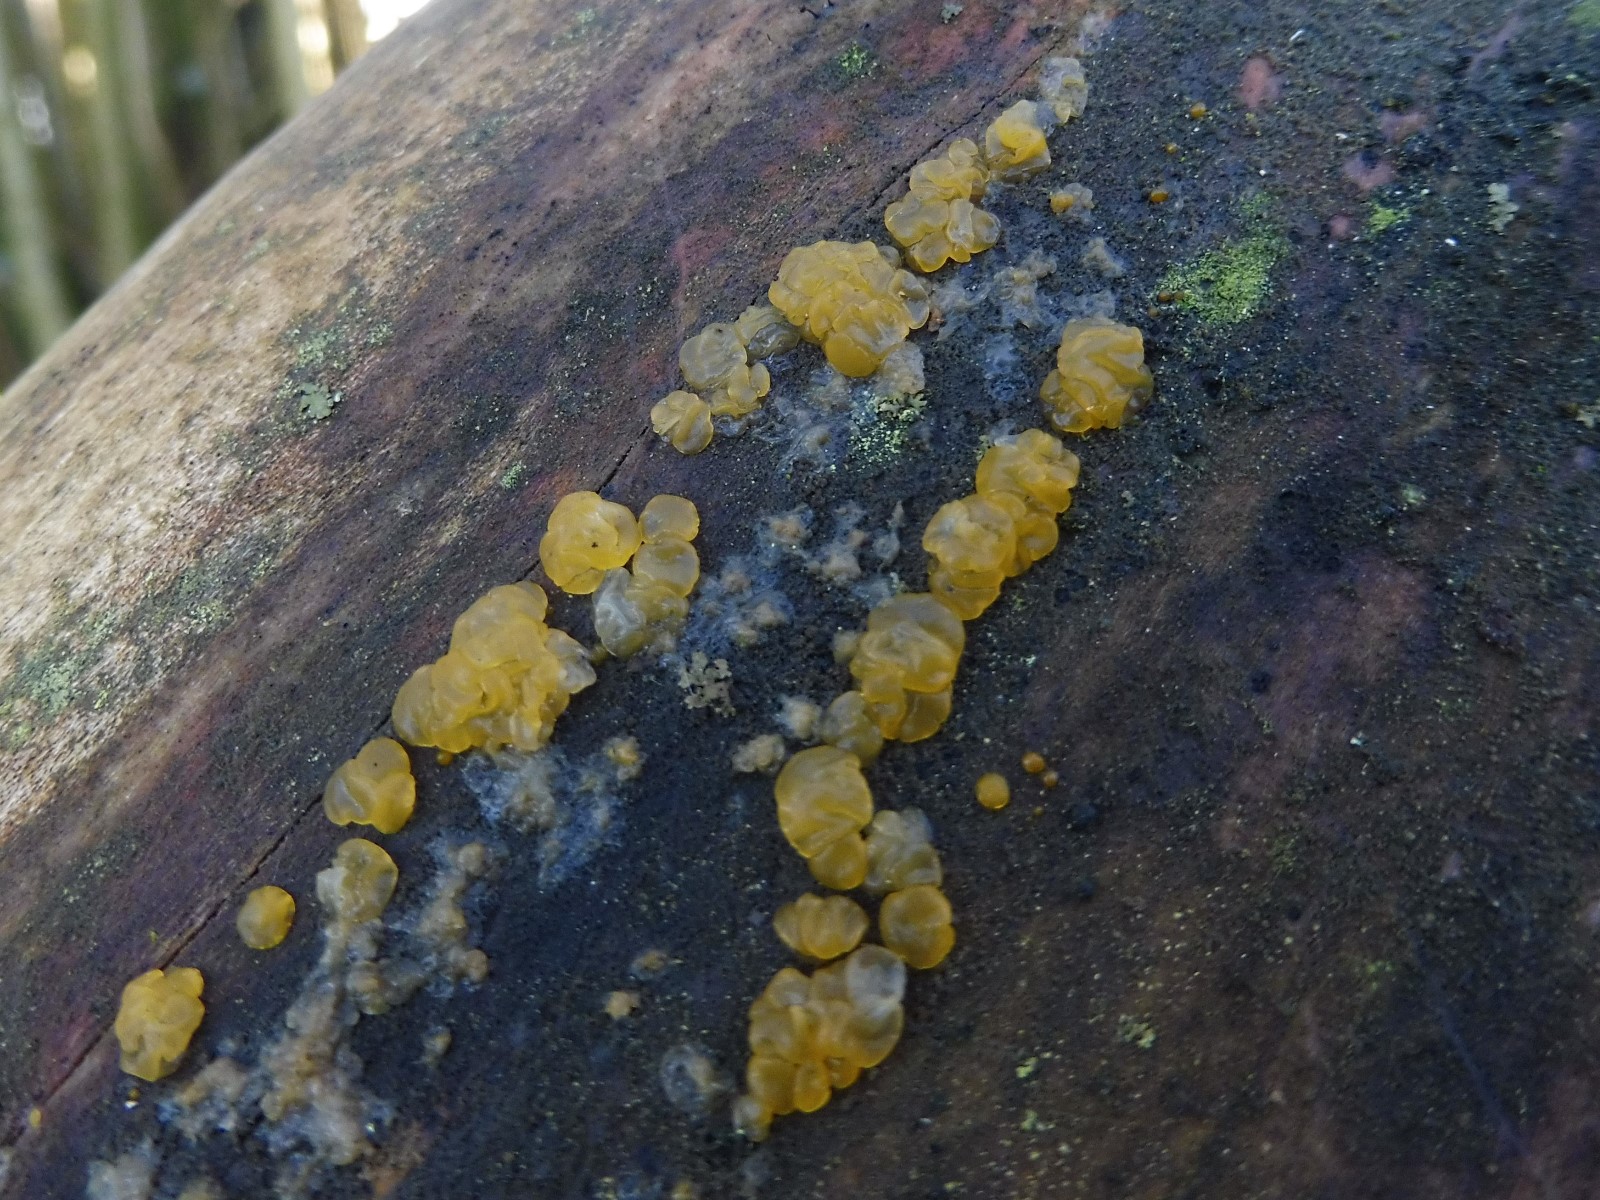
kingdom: Fungi
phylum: Basidiomycota
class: Dacrymycetes
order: Dacrymycetales
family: Dacrymycetaceae
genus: Dacrymyces
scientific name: Dacrymyces lacrymalis
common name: rynket tåresvamp
